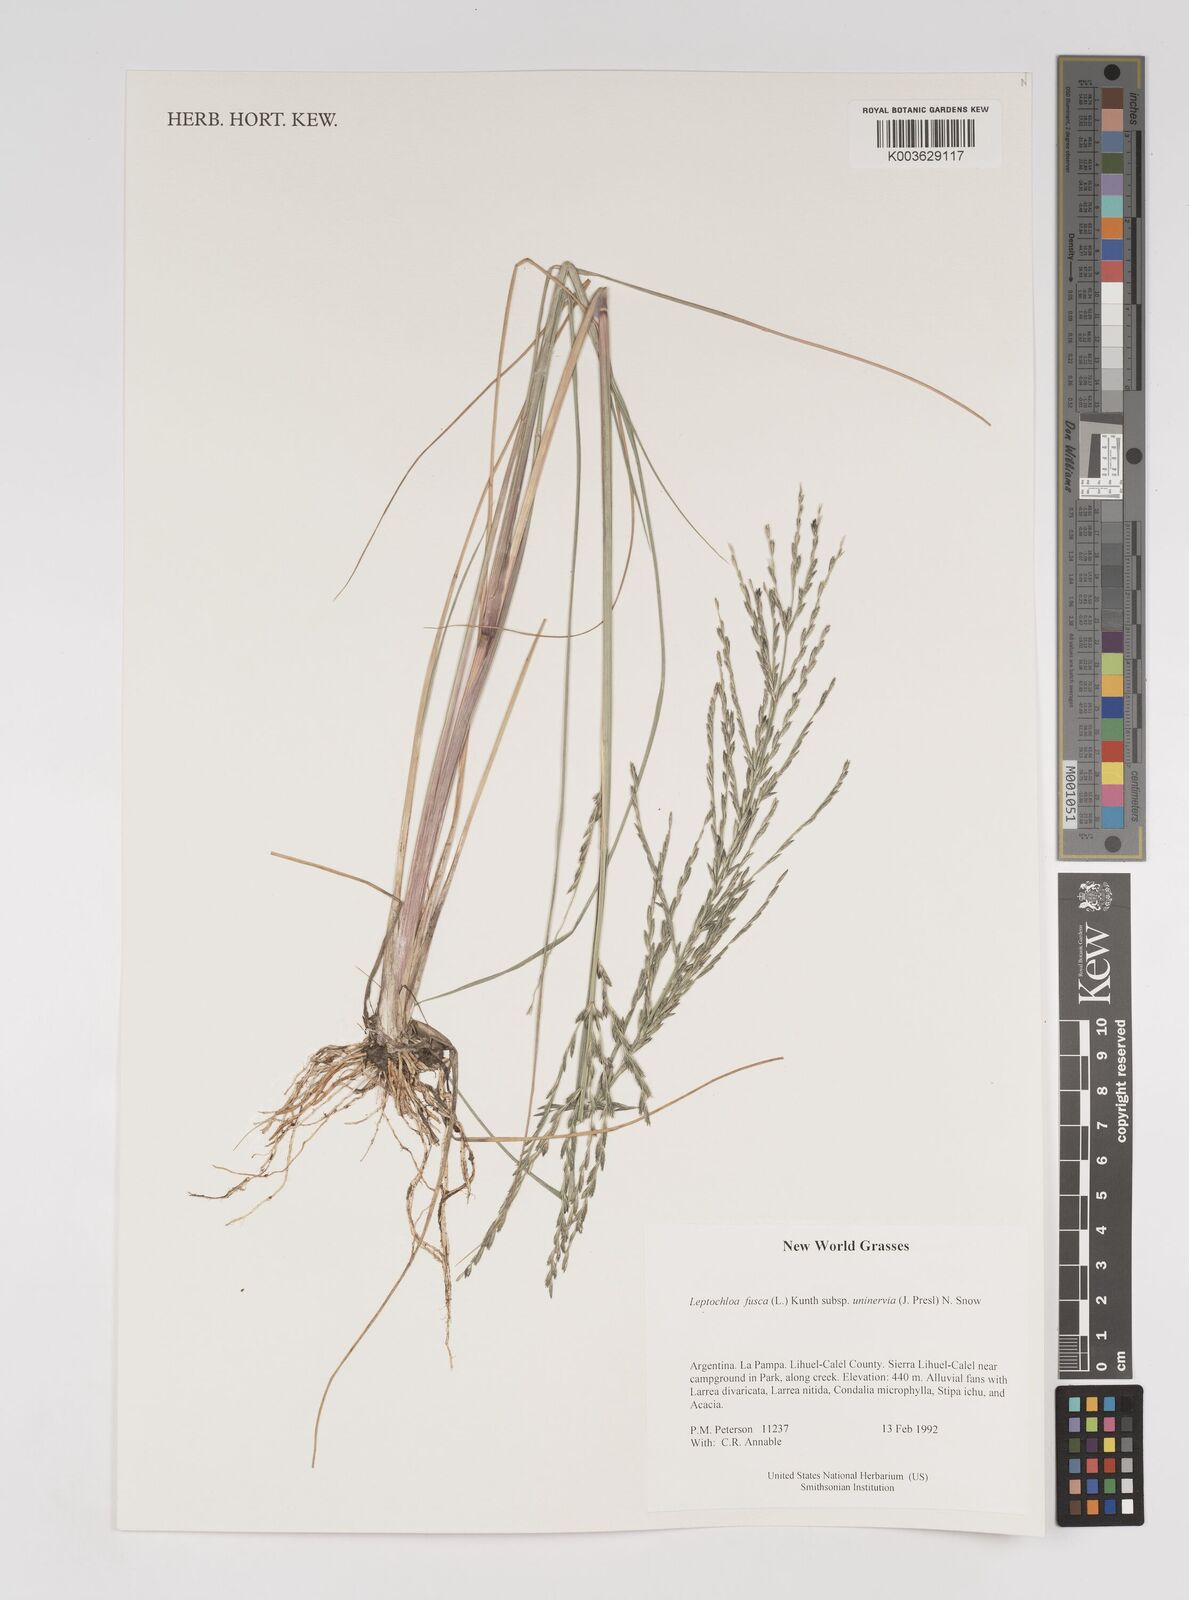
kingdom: Plantae
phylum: Tracheophyta
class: Liliopsida
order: Poales
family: Poaceae
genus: Diplachne
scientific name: Diplachne fusca
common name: Brown beetle grass
